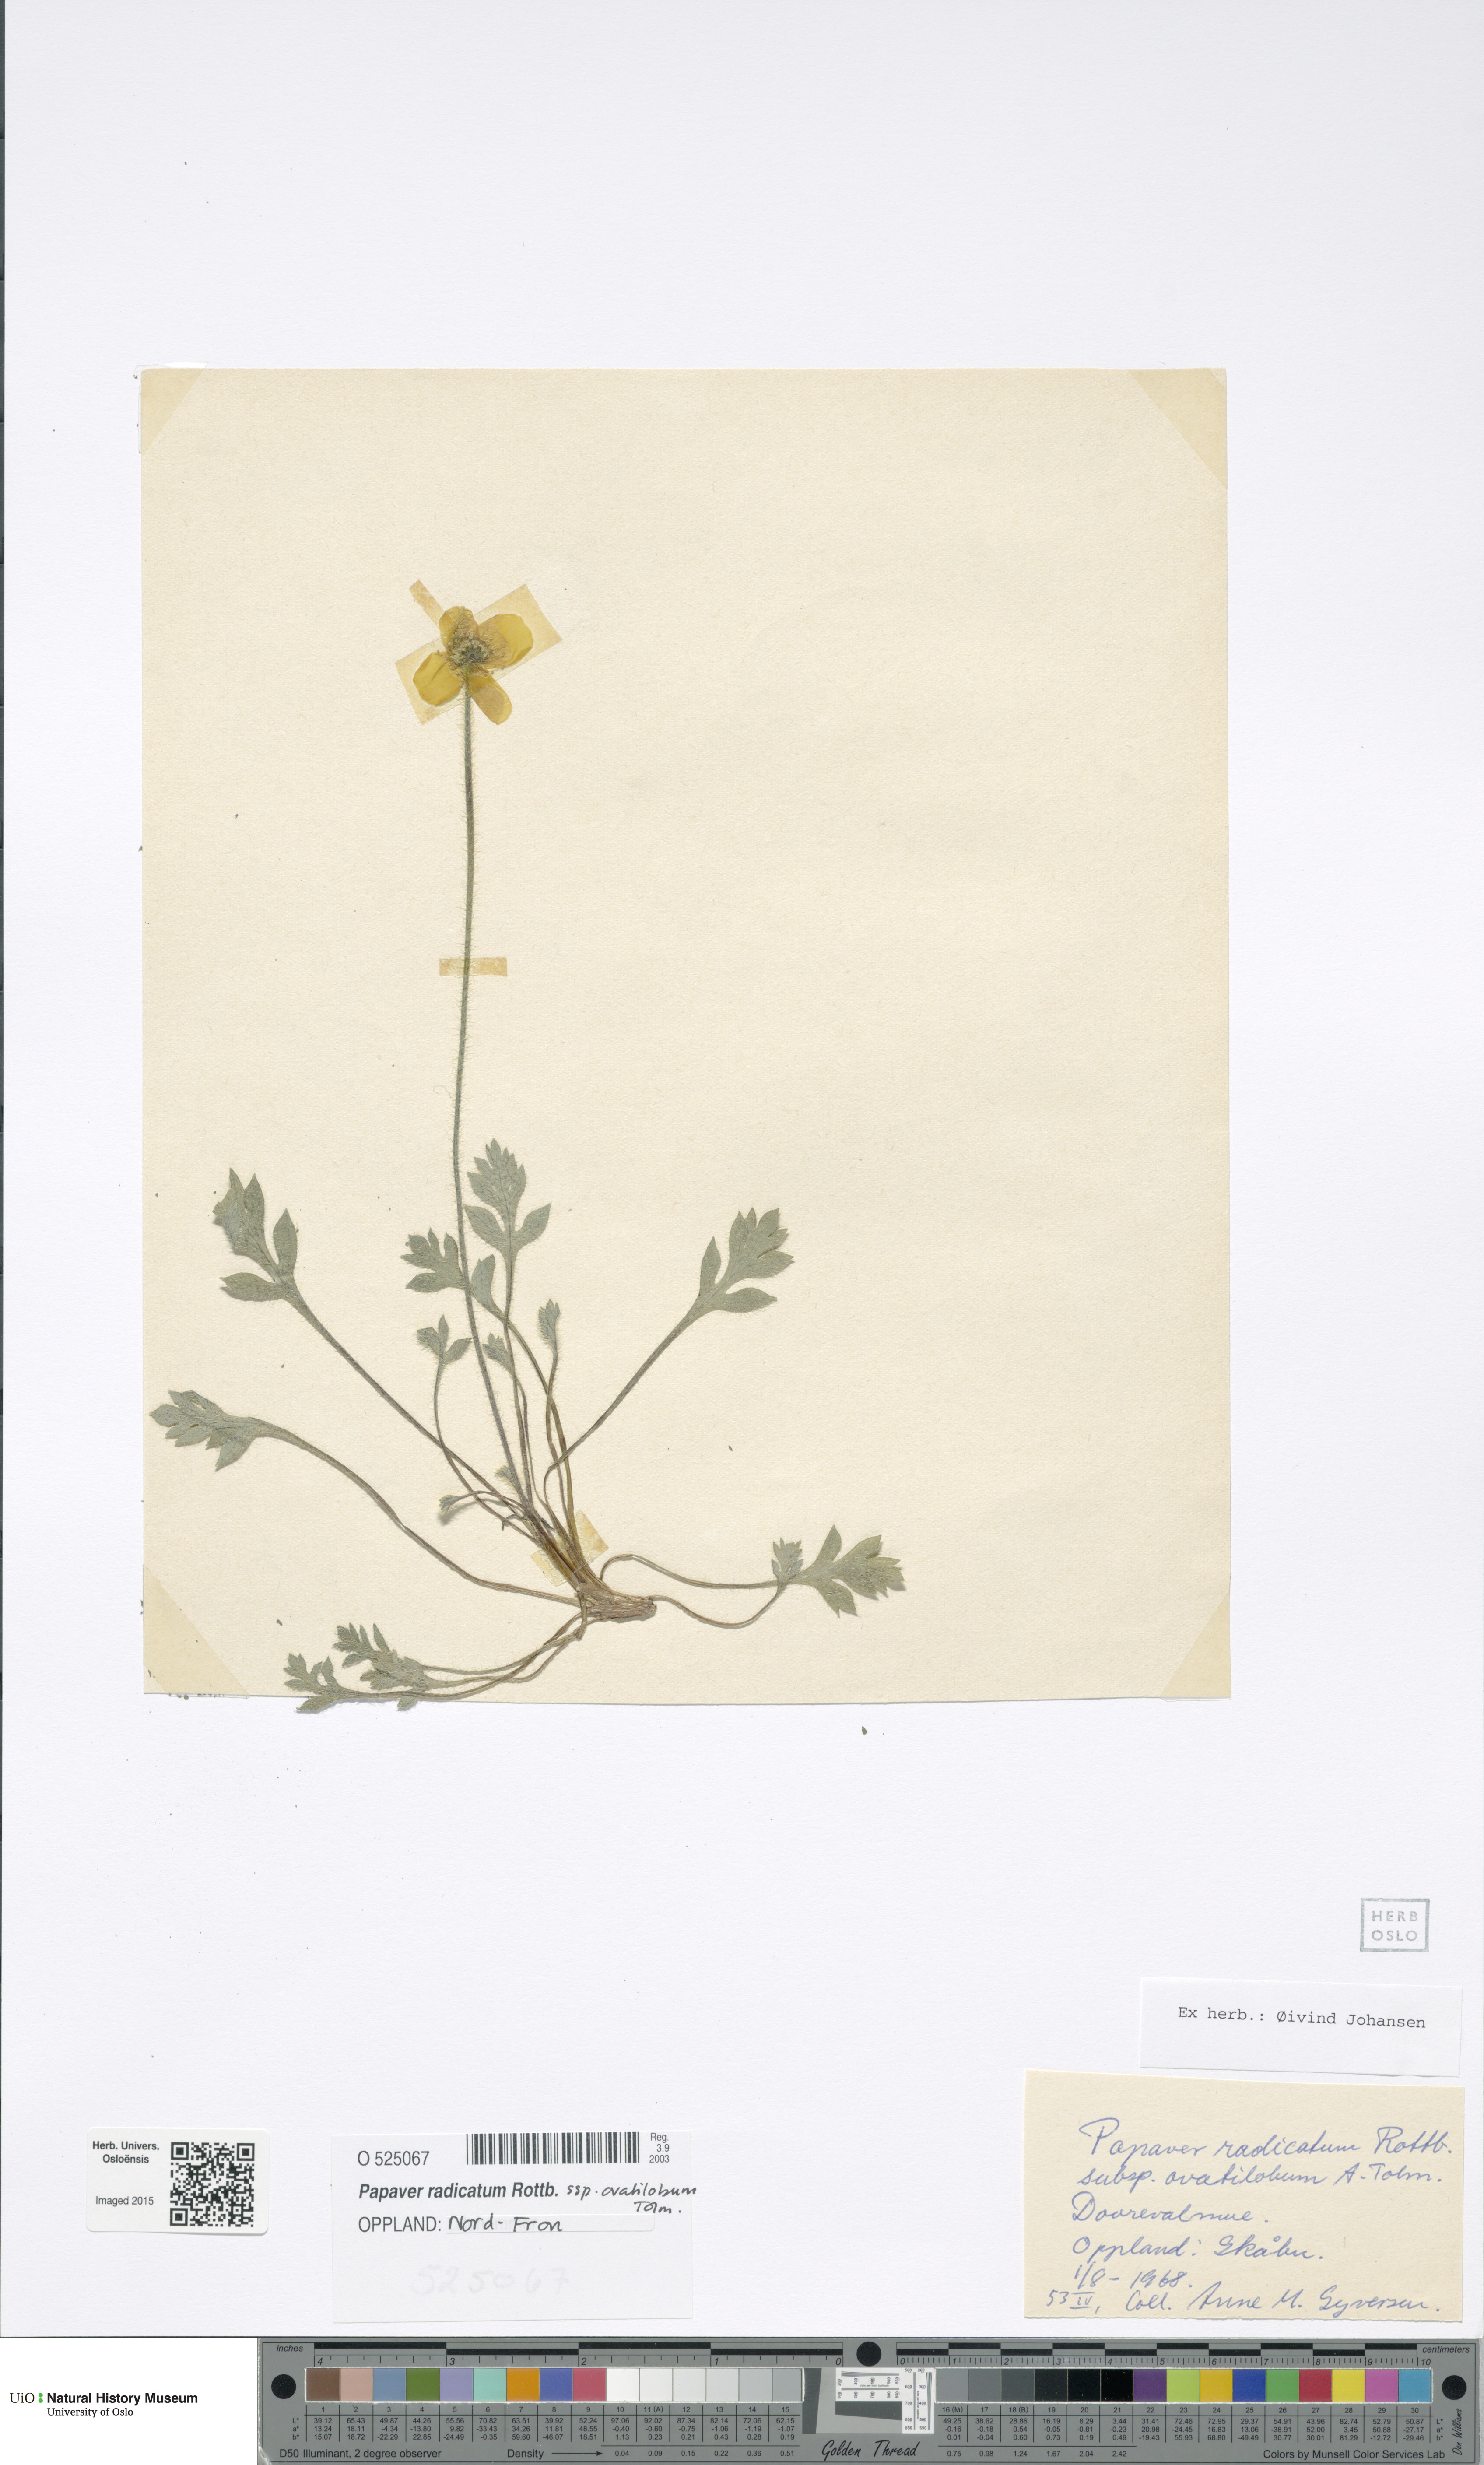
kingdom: Plantae
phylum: Tracheophyta
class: Magnoliopsida
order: Ranunculales
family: Papaveraceae
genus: Papaver
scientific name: Papaver radicatum
